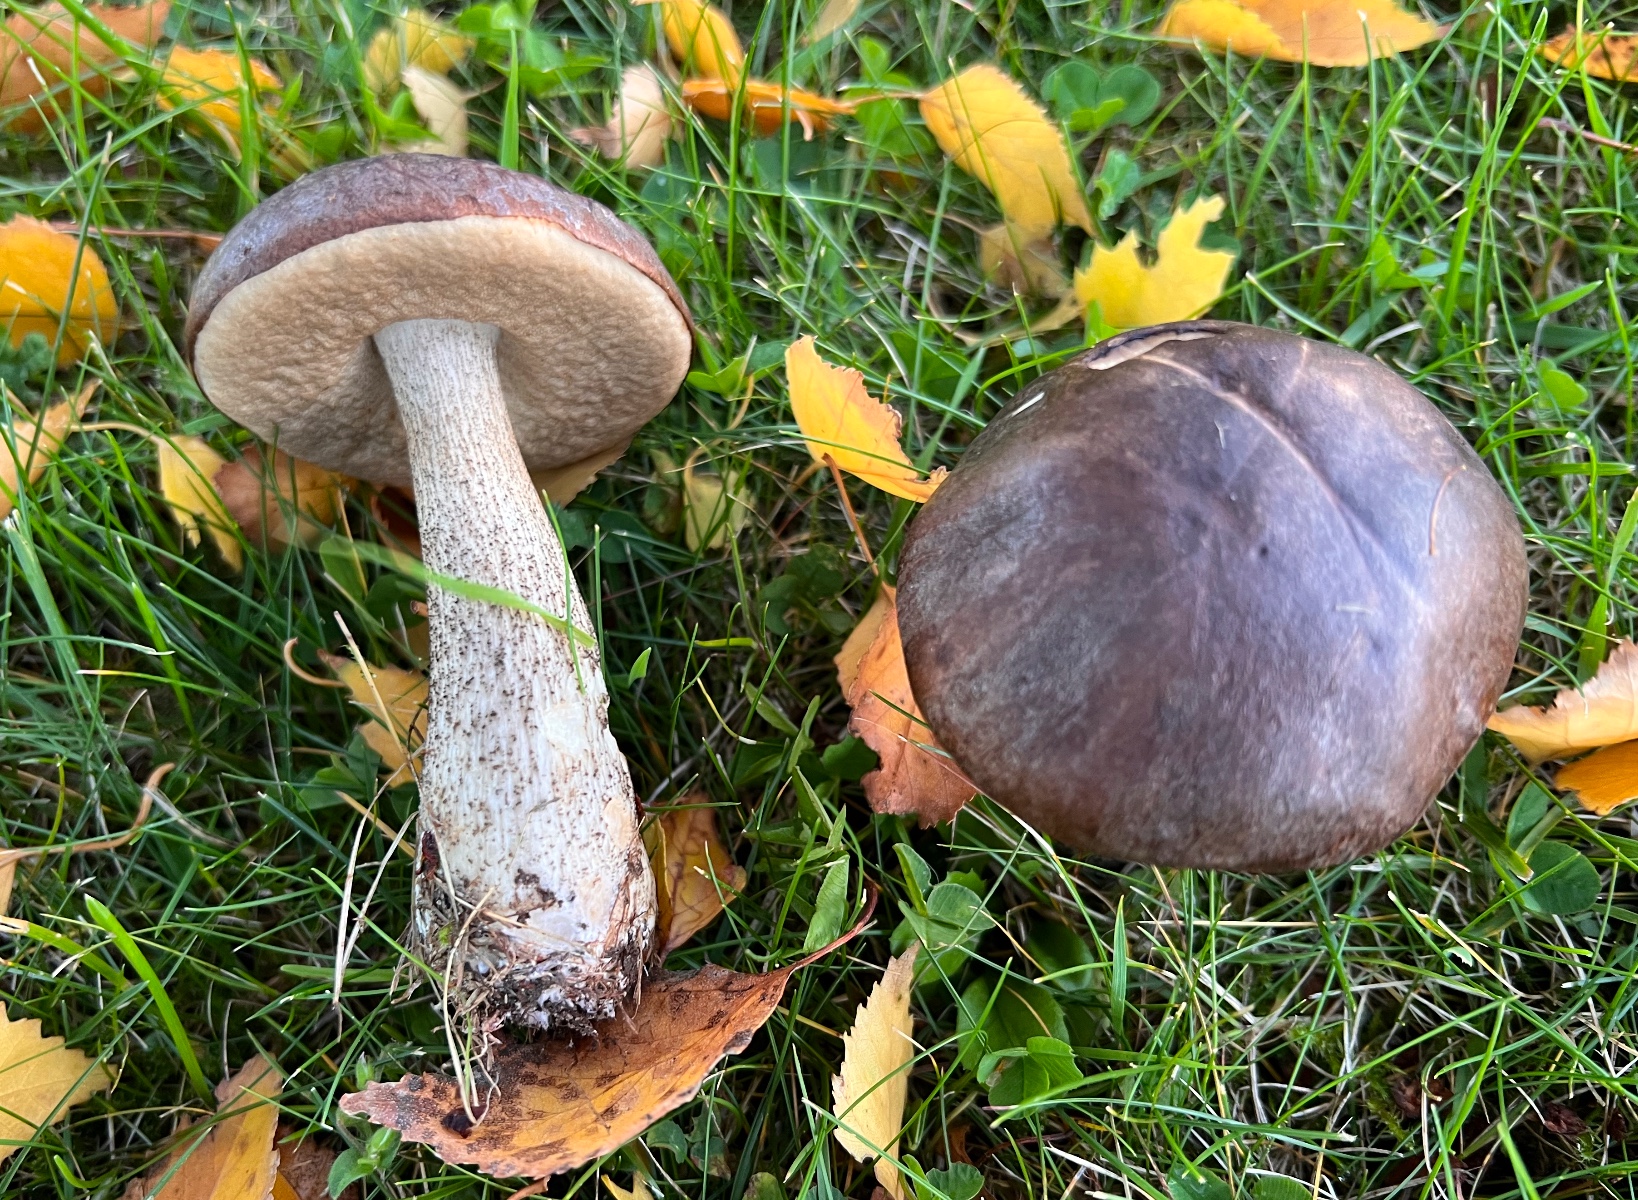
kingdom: Fungi
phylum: Basidiomycota
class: Agaricomycetes
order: Boletales
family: Boletaceae
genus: Leccinum
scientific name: Leccinum scabrum
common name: brun skælrørhat
